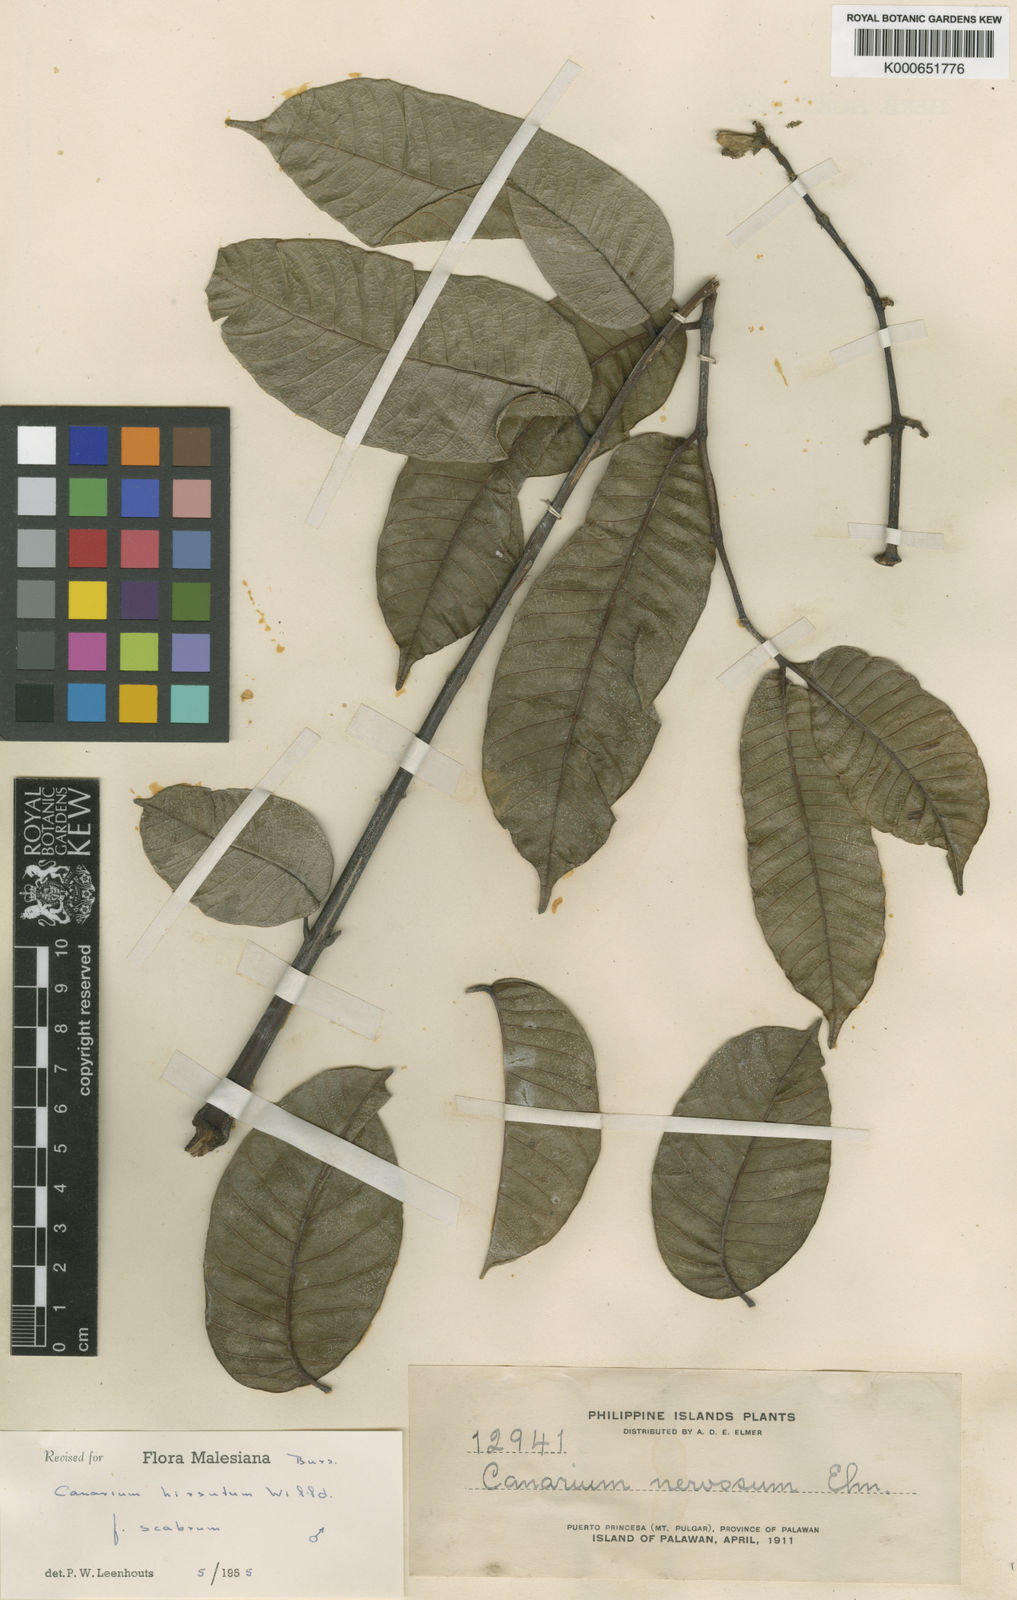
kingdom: Plantae
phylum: Tracheophyta
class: Magnoliopsida
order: Sapindales
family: Burseraceae
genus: Canarium
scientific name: Canarium hirsutum
